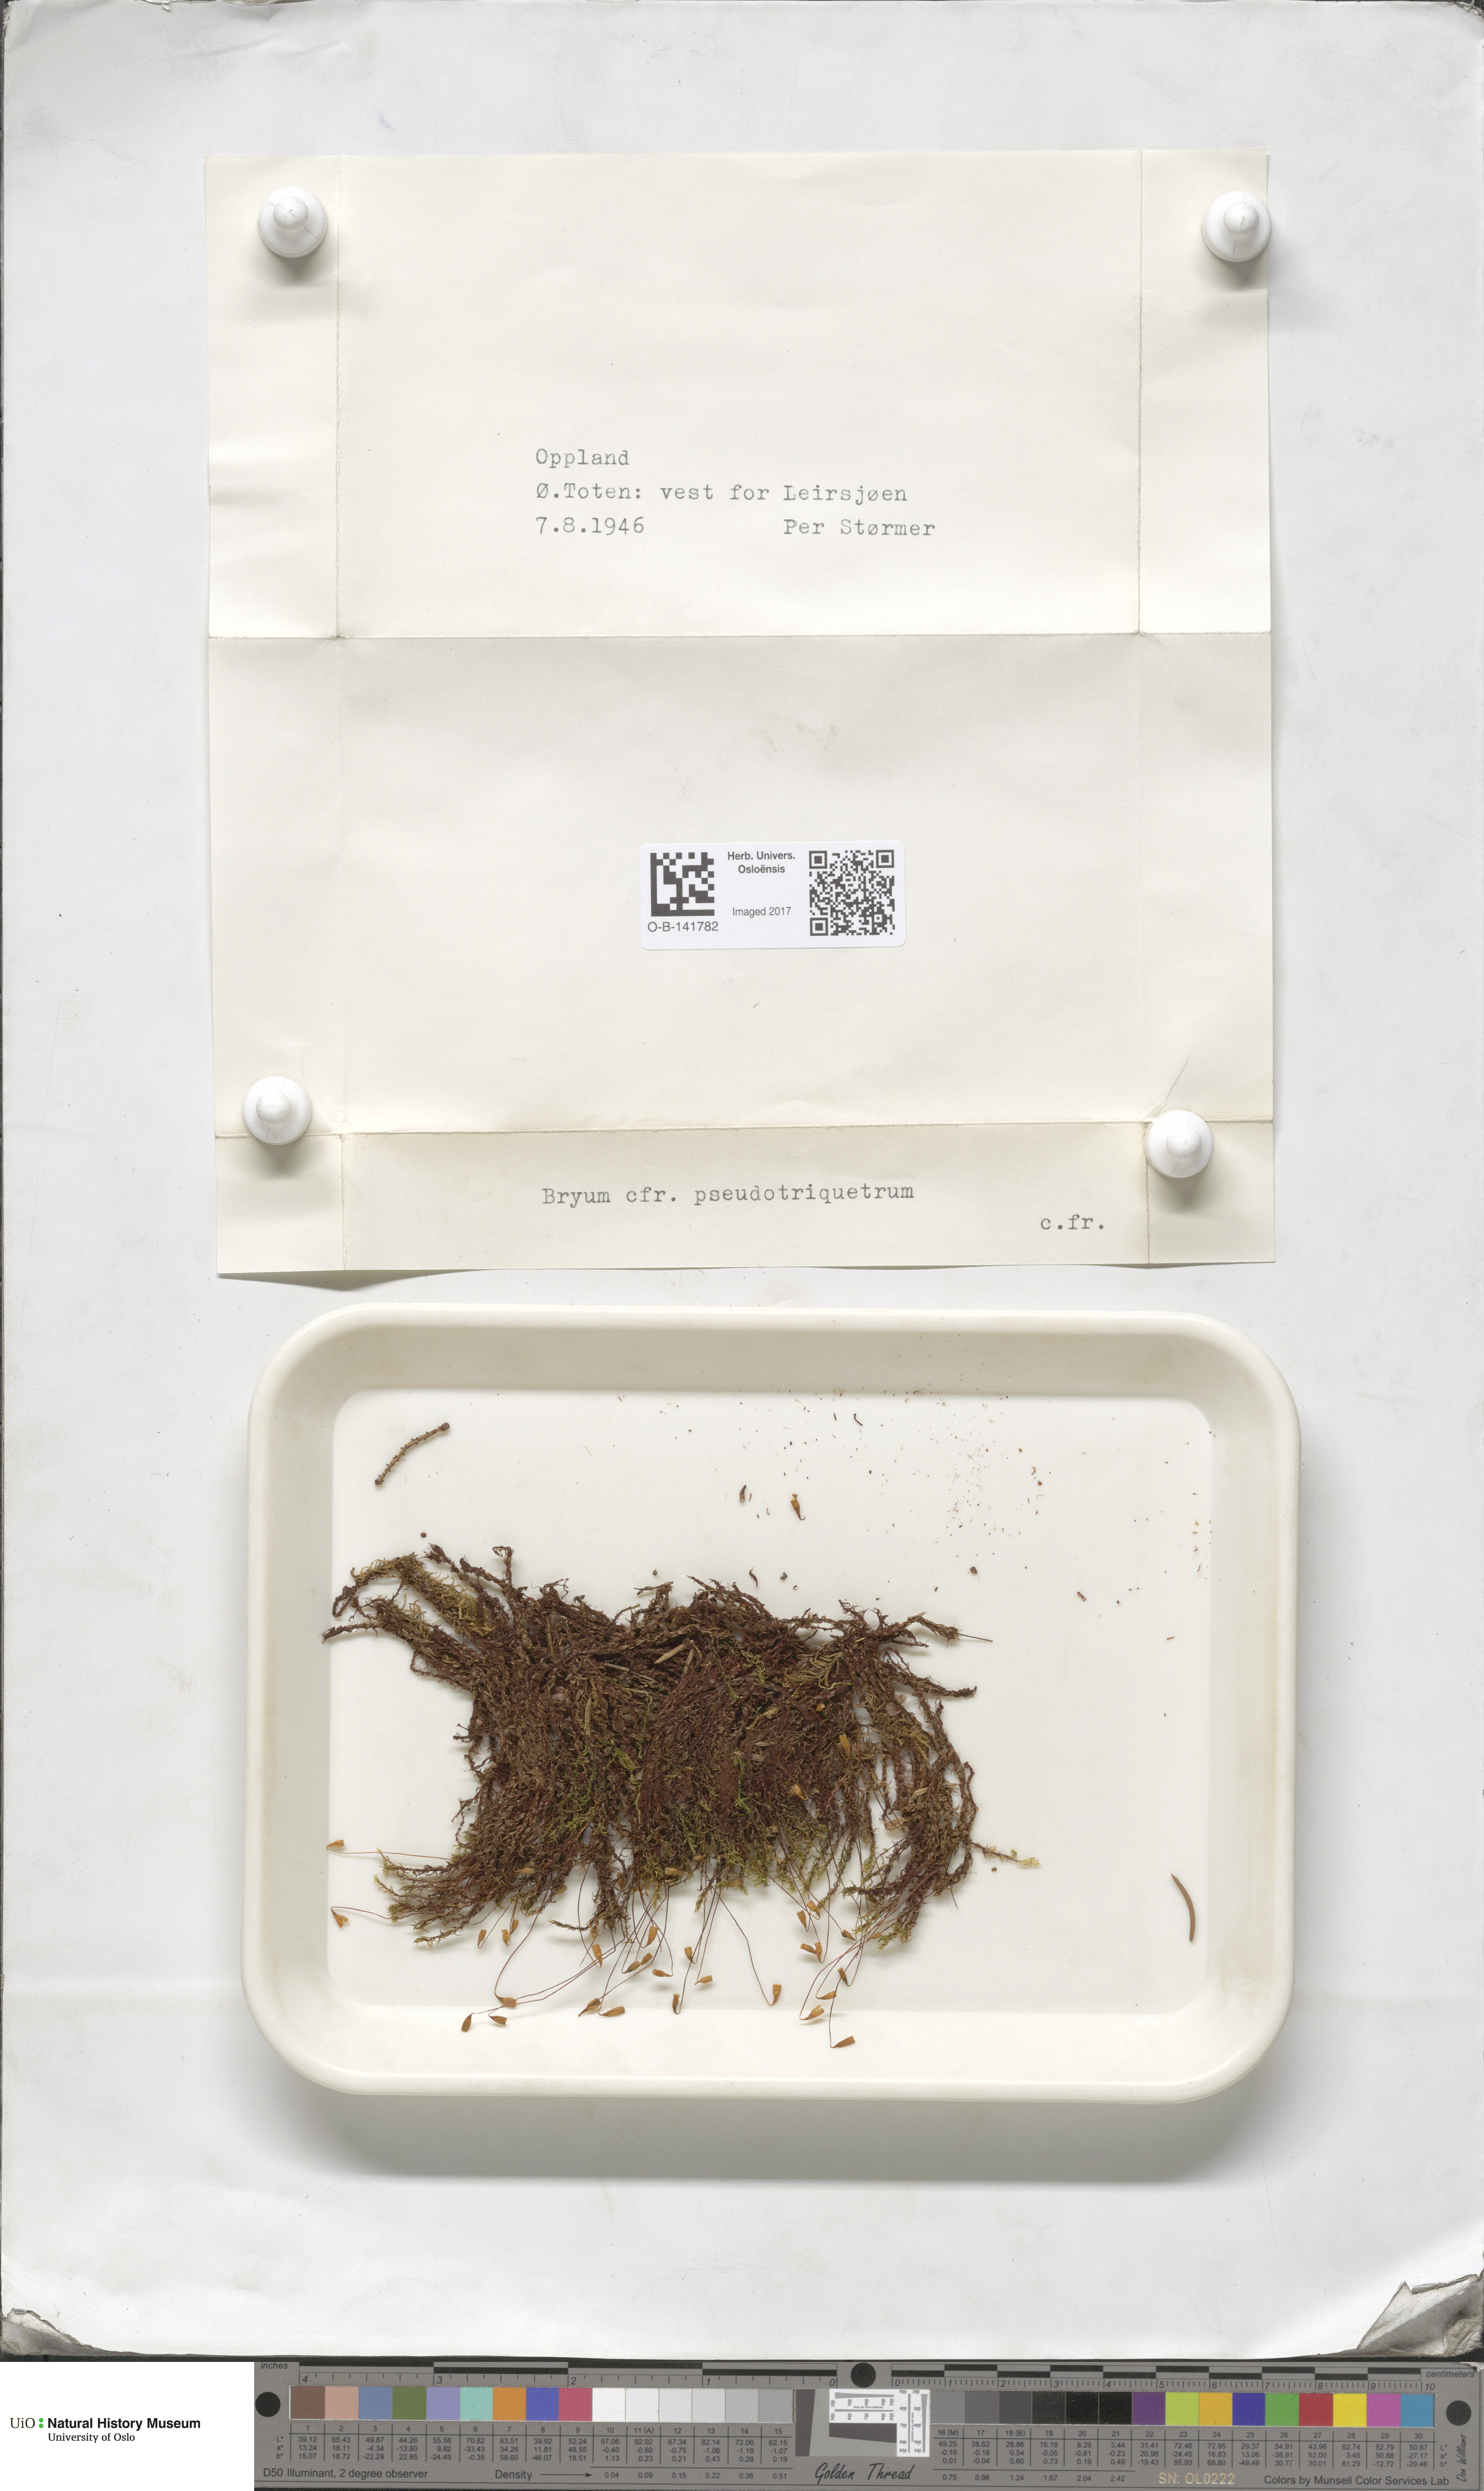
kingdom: Plantae
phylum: Bryophyta
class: Bryopsida
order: Bryales
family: Bryaceae
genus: Ptychostomum
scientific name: Ptychostomum pseudotriquetrum
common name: Long-leaved thread moss
